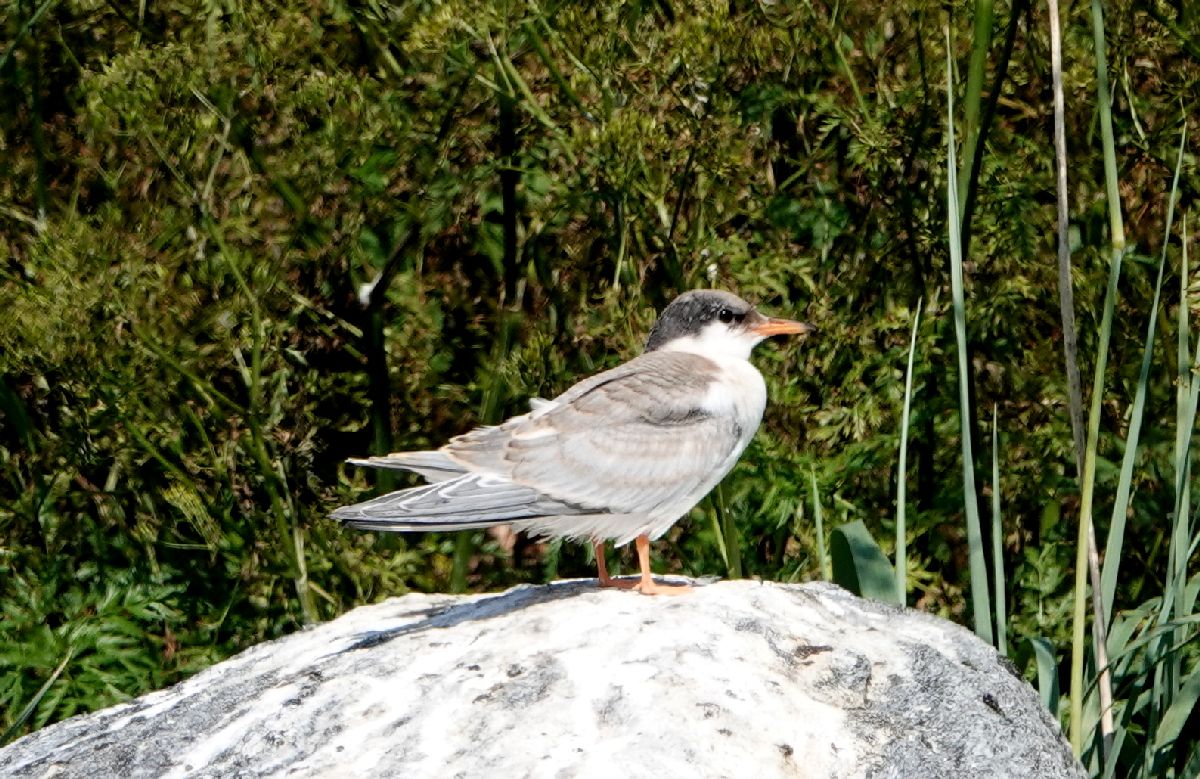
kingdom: Animalia
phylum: Chordata
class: Aves
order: Charadriiformes
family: Laridae
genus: Sterna
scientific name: Sterna hirundo
